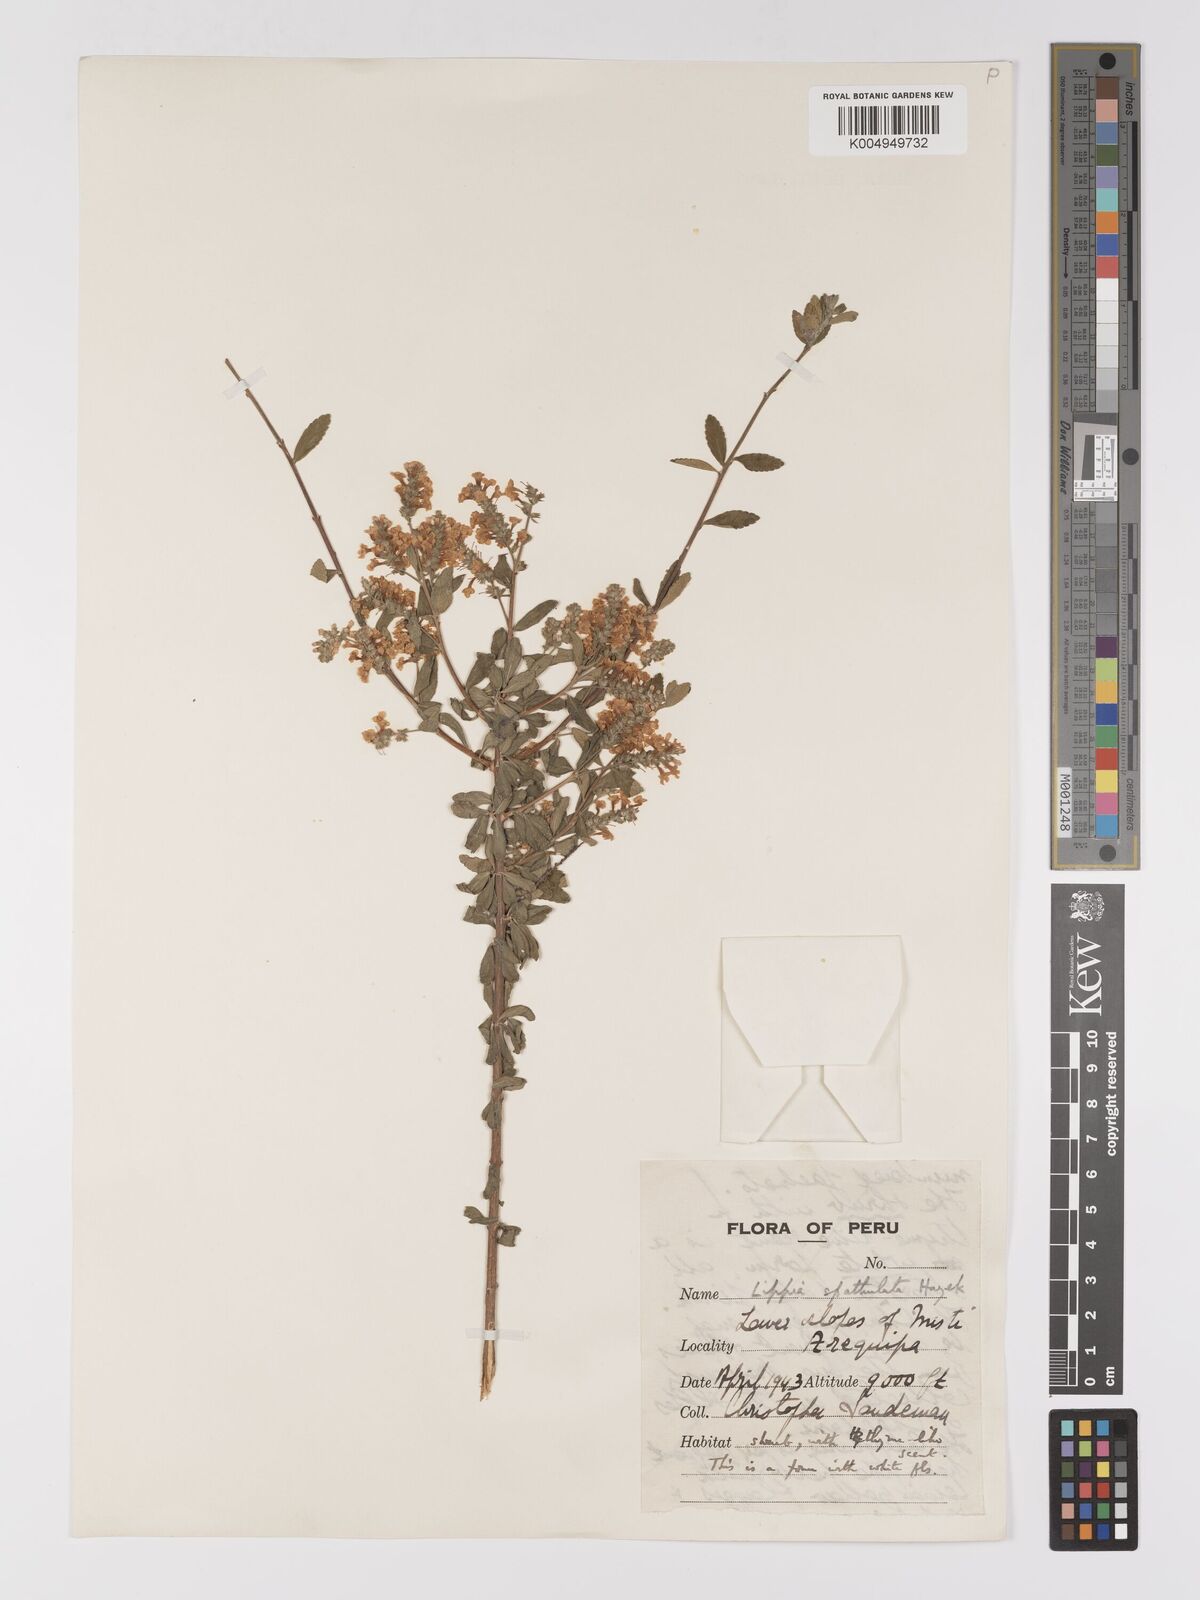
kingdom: Plantae
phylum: Tracheophyta
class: Magnoliopsida
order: Lamiales
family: Verbenaceae
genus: Aloysia
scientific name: Aloysia spathulata
